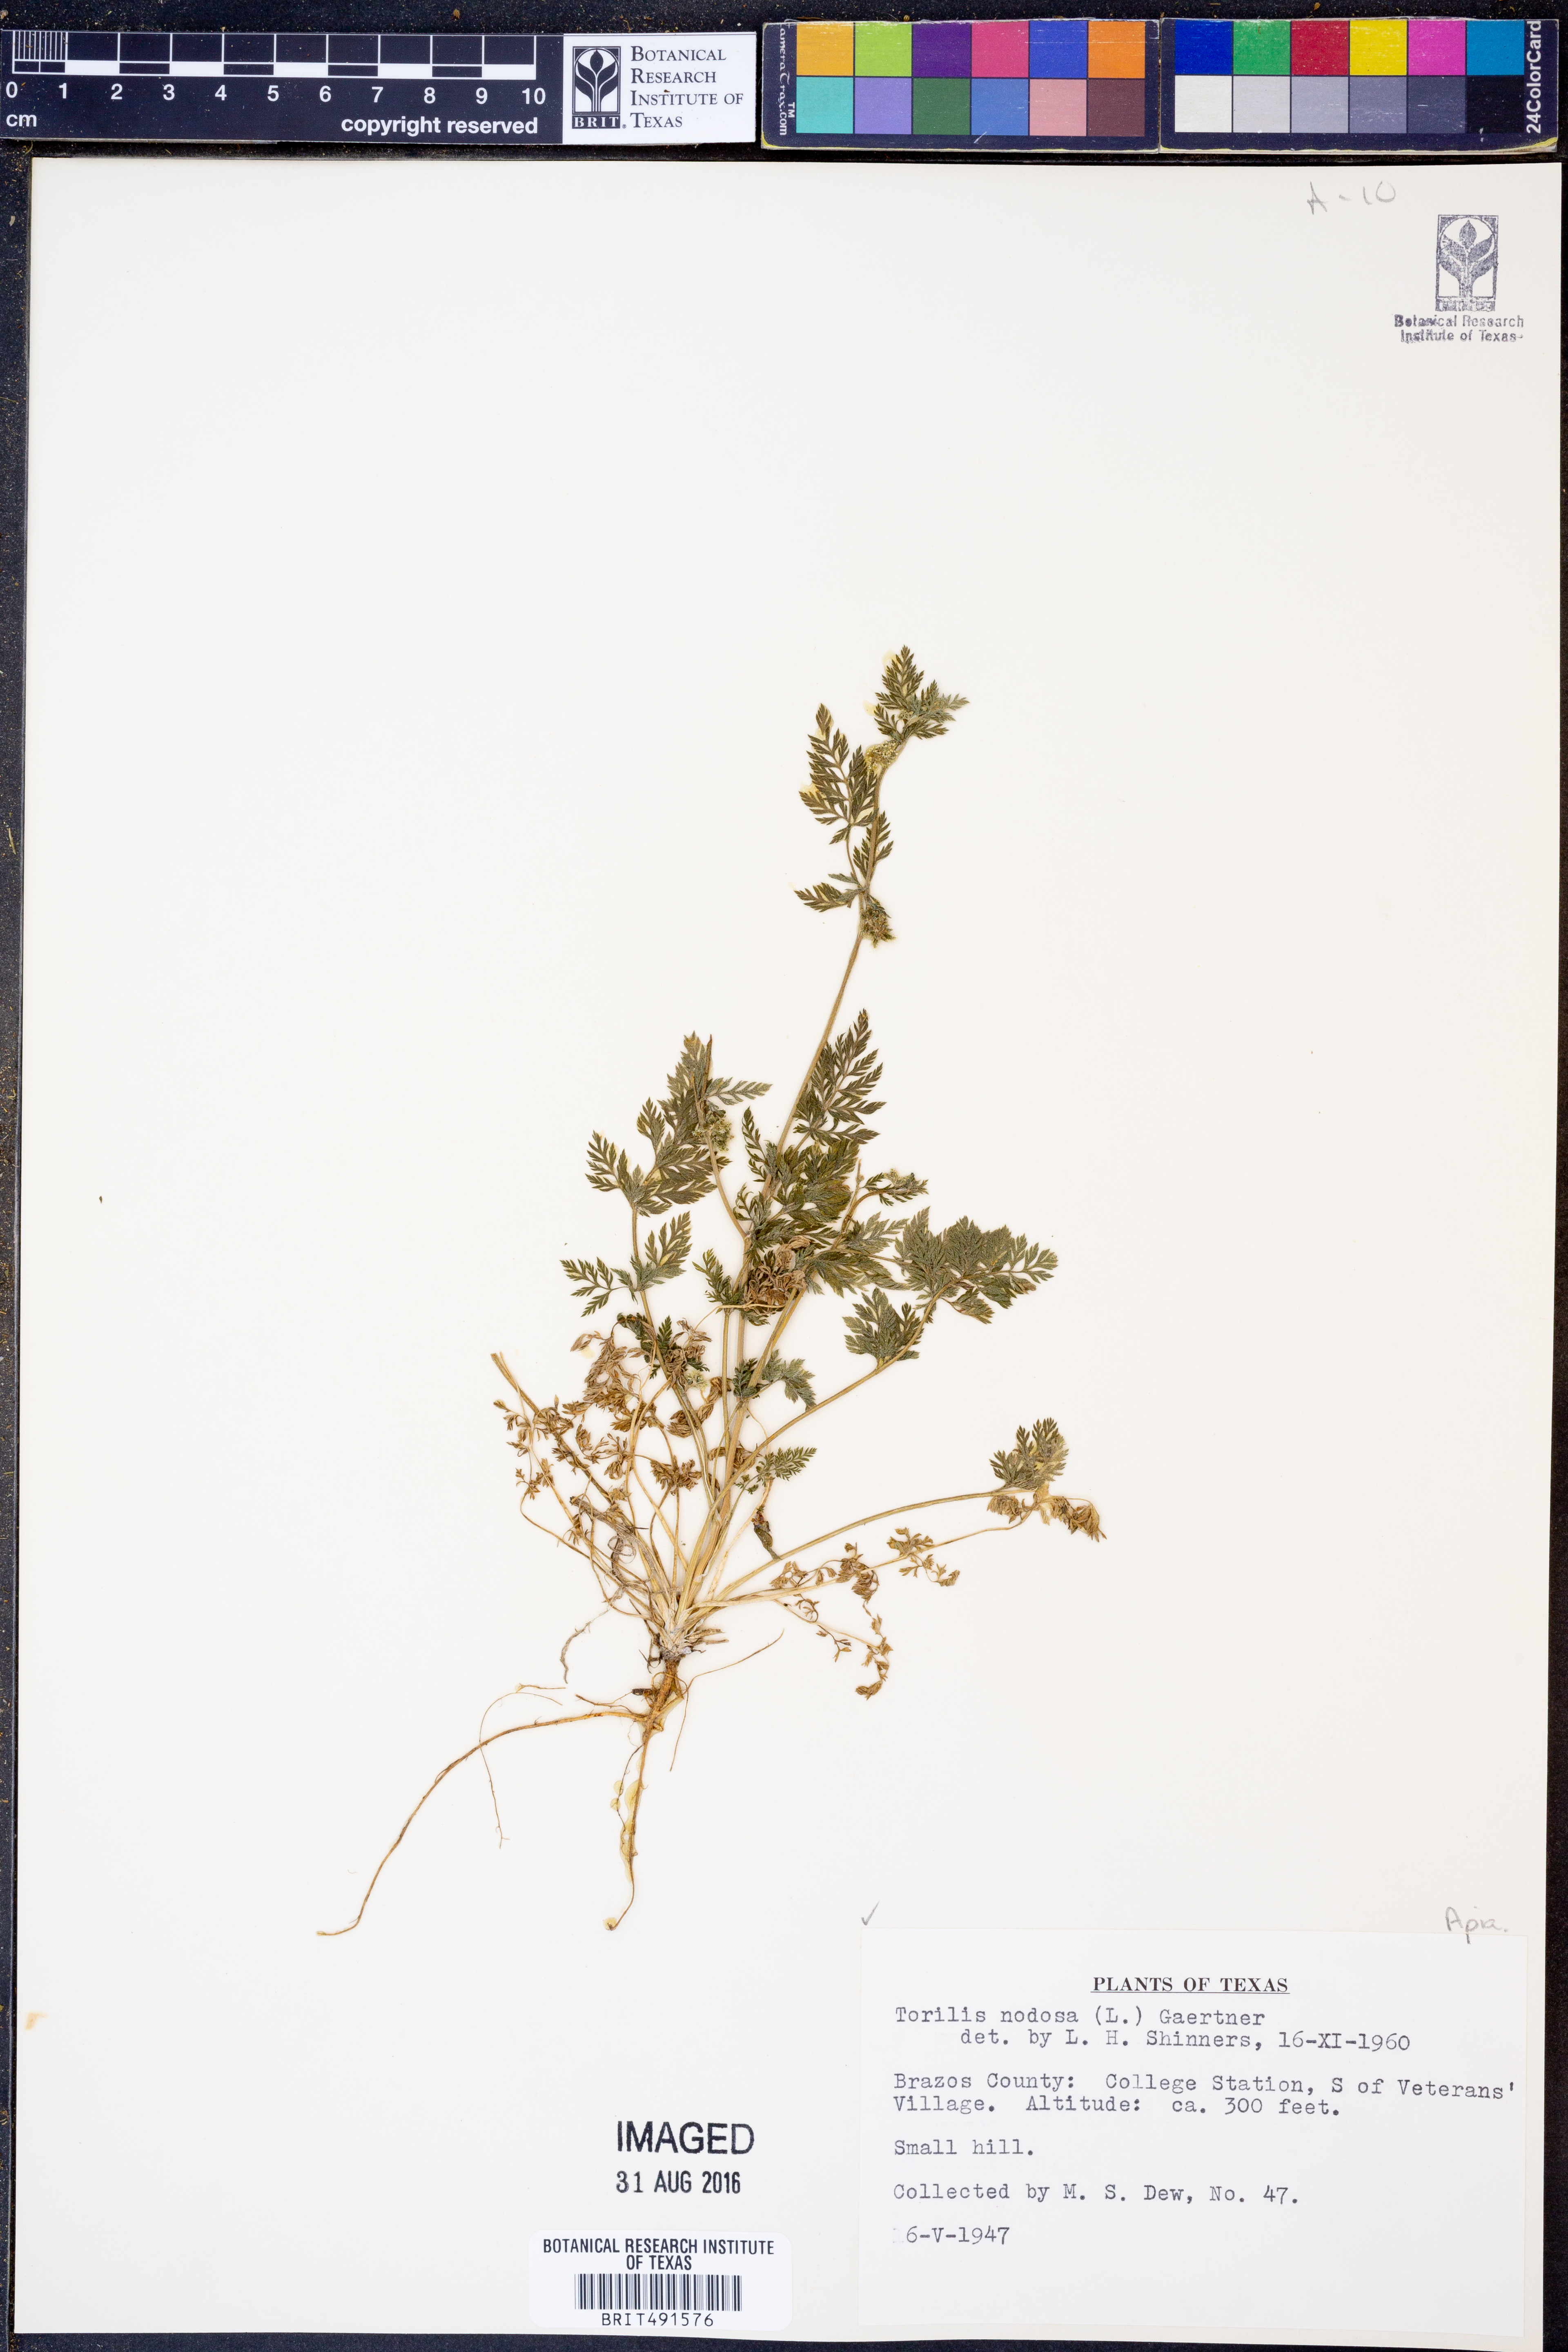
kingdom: Plantae
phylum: Tracheophyta
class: Magnoliopsida
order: Apiales
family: Apiaceae
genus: Torilis
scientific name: Torilis nodosa
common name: Knotted hedge-parsley
